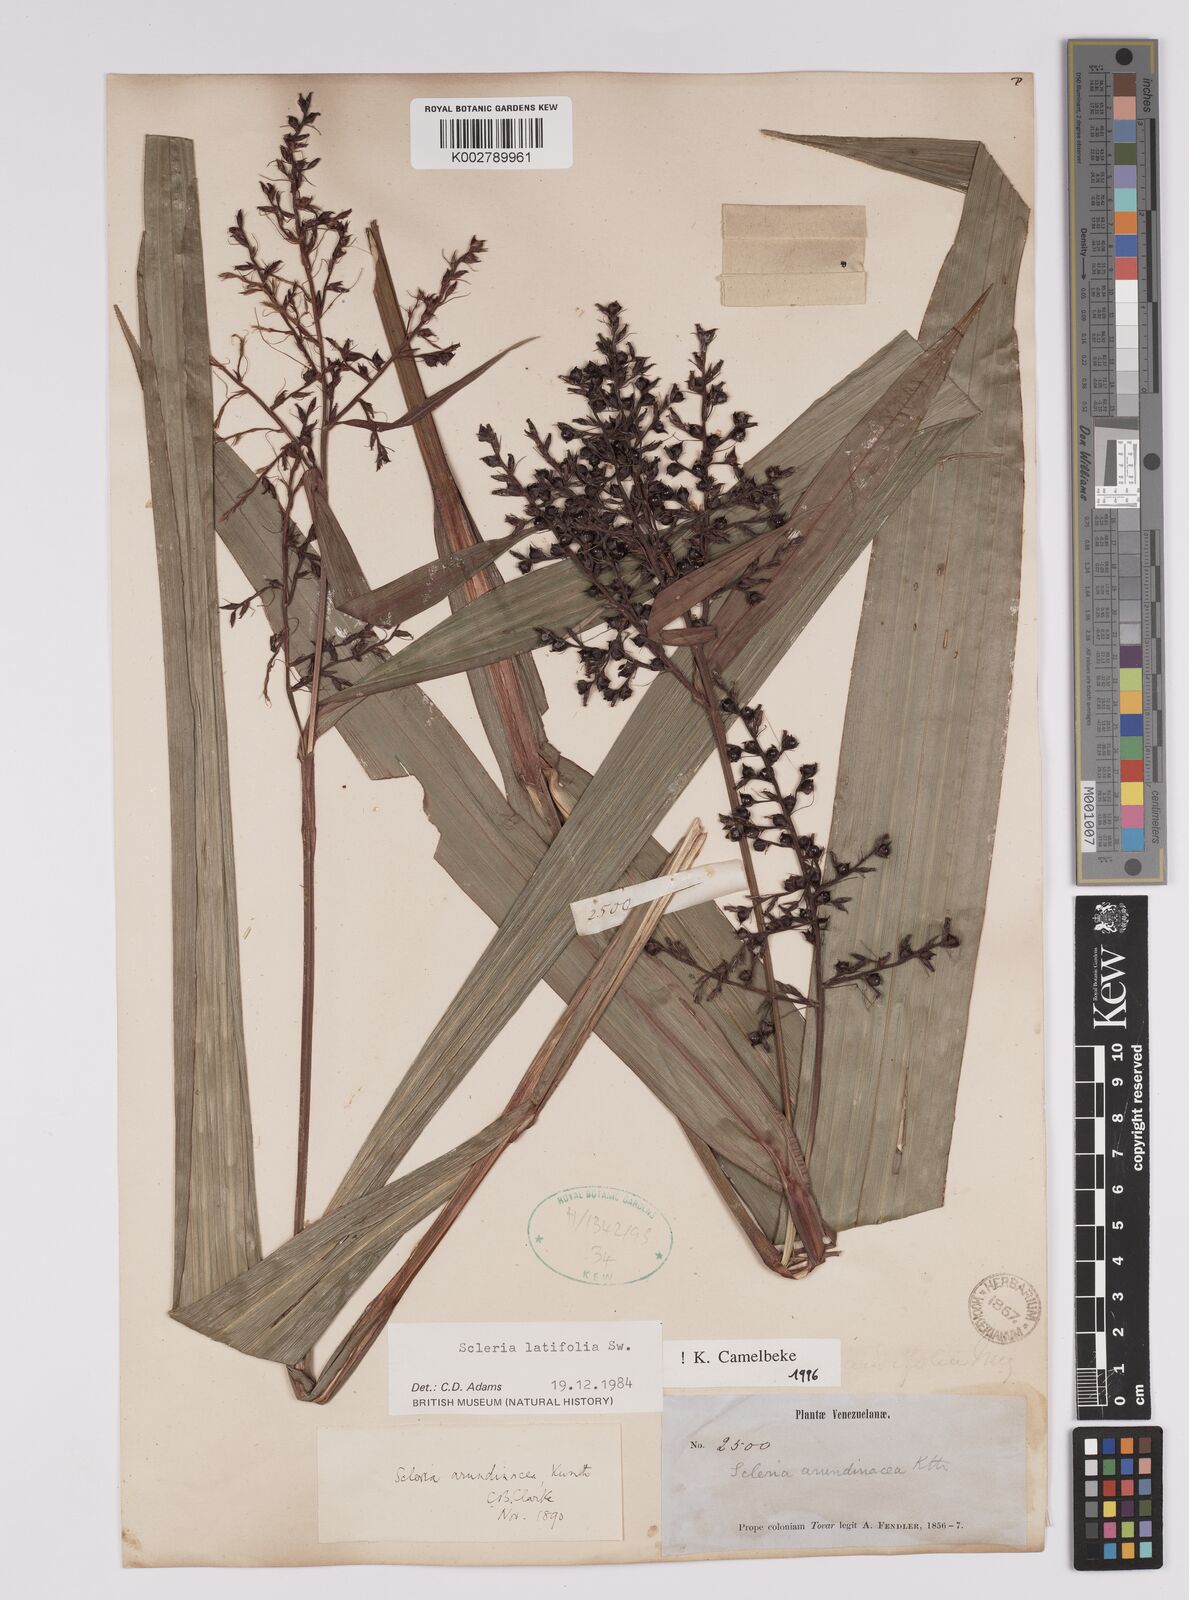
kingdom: Plantae
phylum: Tracheophyta
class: Liliopsida
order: Poales
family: Cyperaceae
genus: Scleria
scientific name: Scleria latifolia
